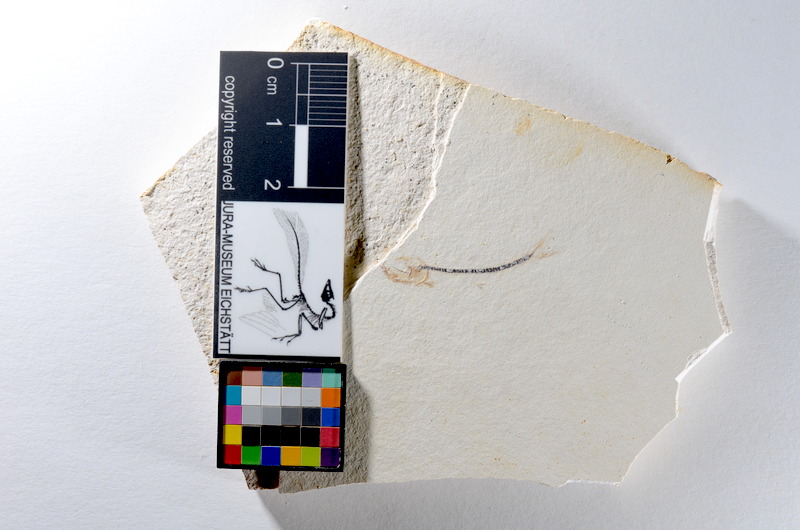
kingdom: Animalia
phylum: Chordata
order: Salmoniformes
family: Orthogonikleithridae
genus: Orthogonikleithrus
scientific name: Orthogonikleithrus hoelli
